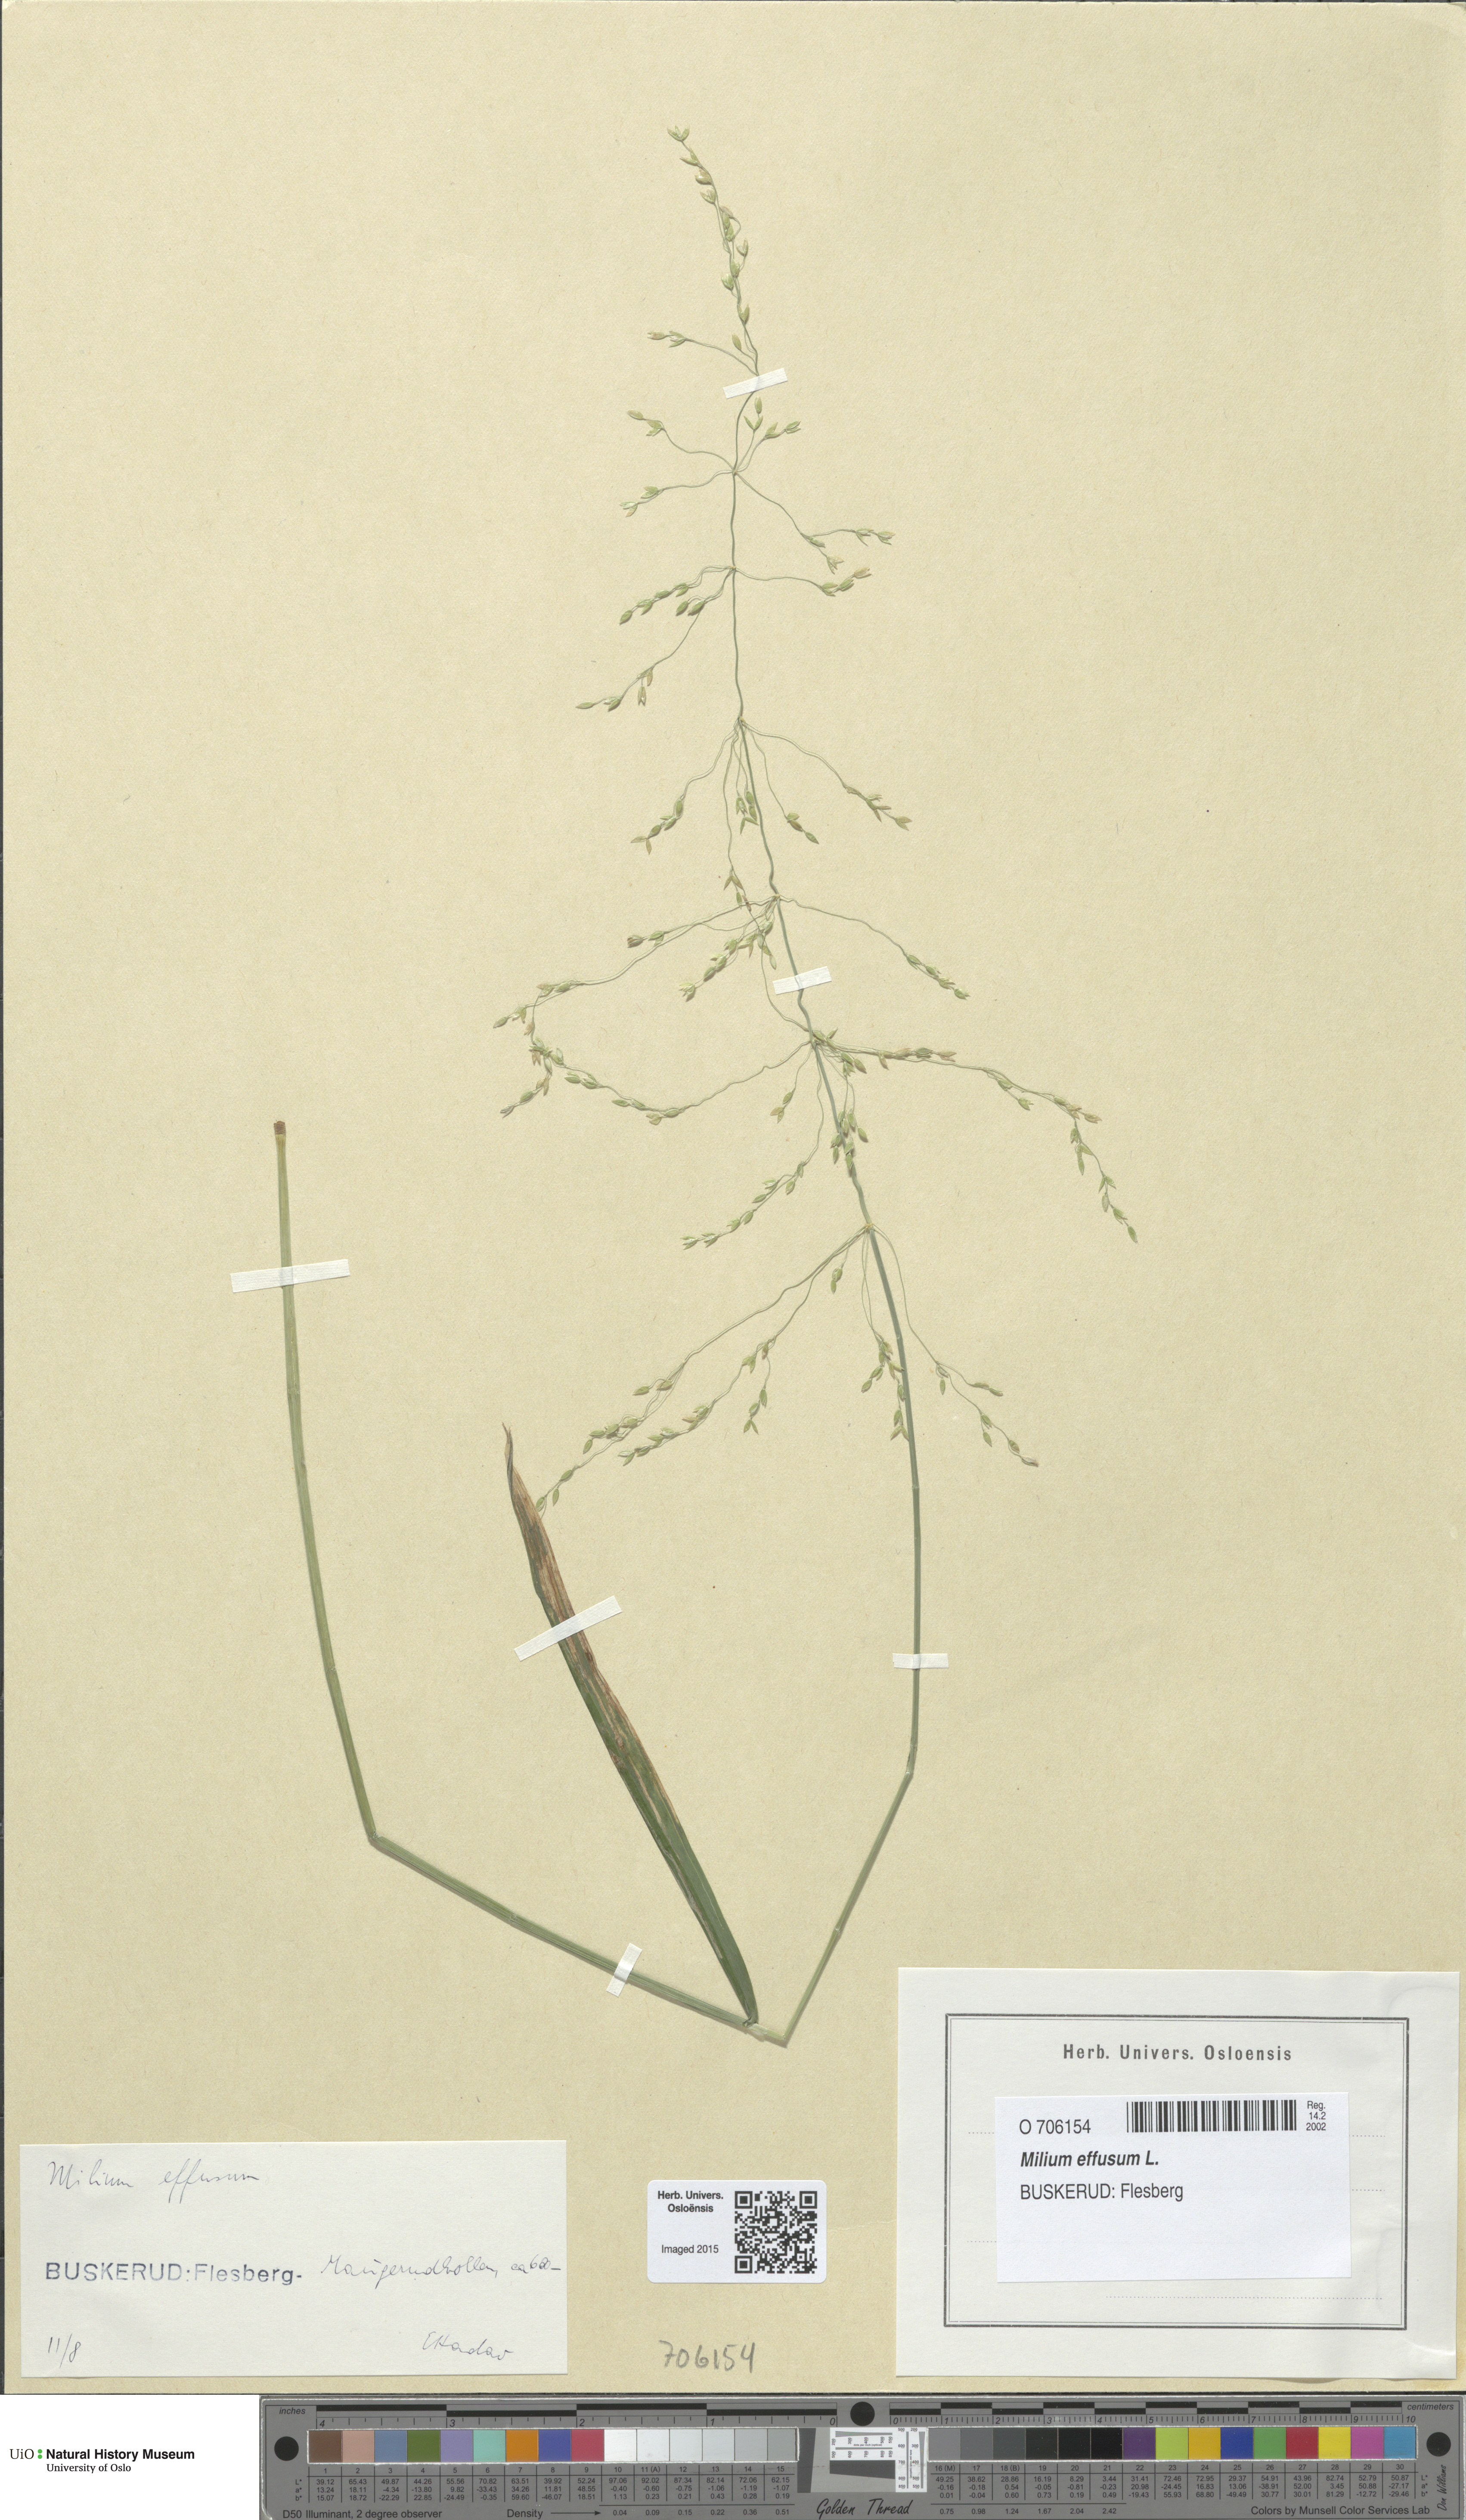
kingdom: Plantae
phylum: Tracheophyta
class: Liliopsida
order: Poales
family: Poaceae
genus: Milium
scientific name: Milium effusum
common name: Wood millet
